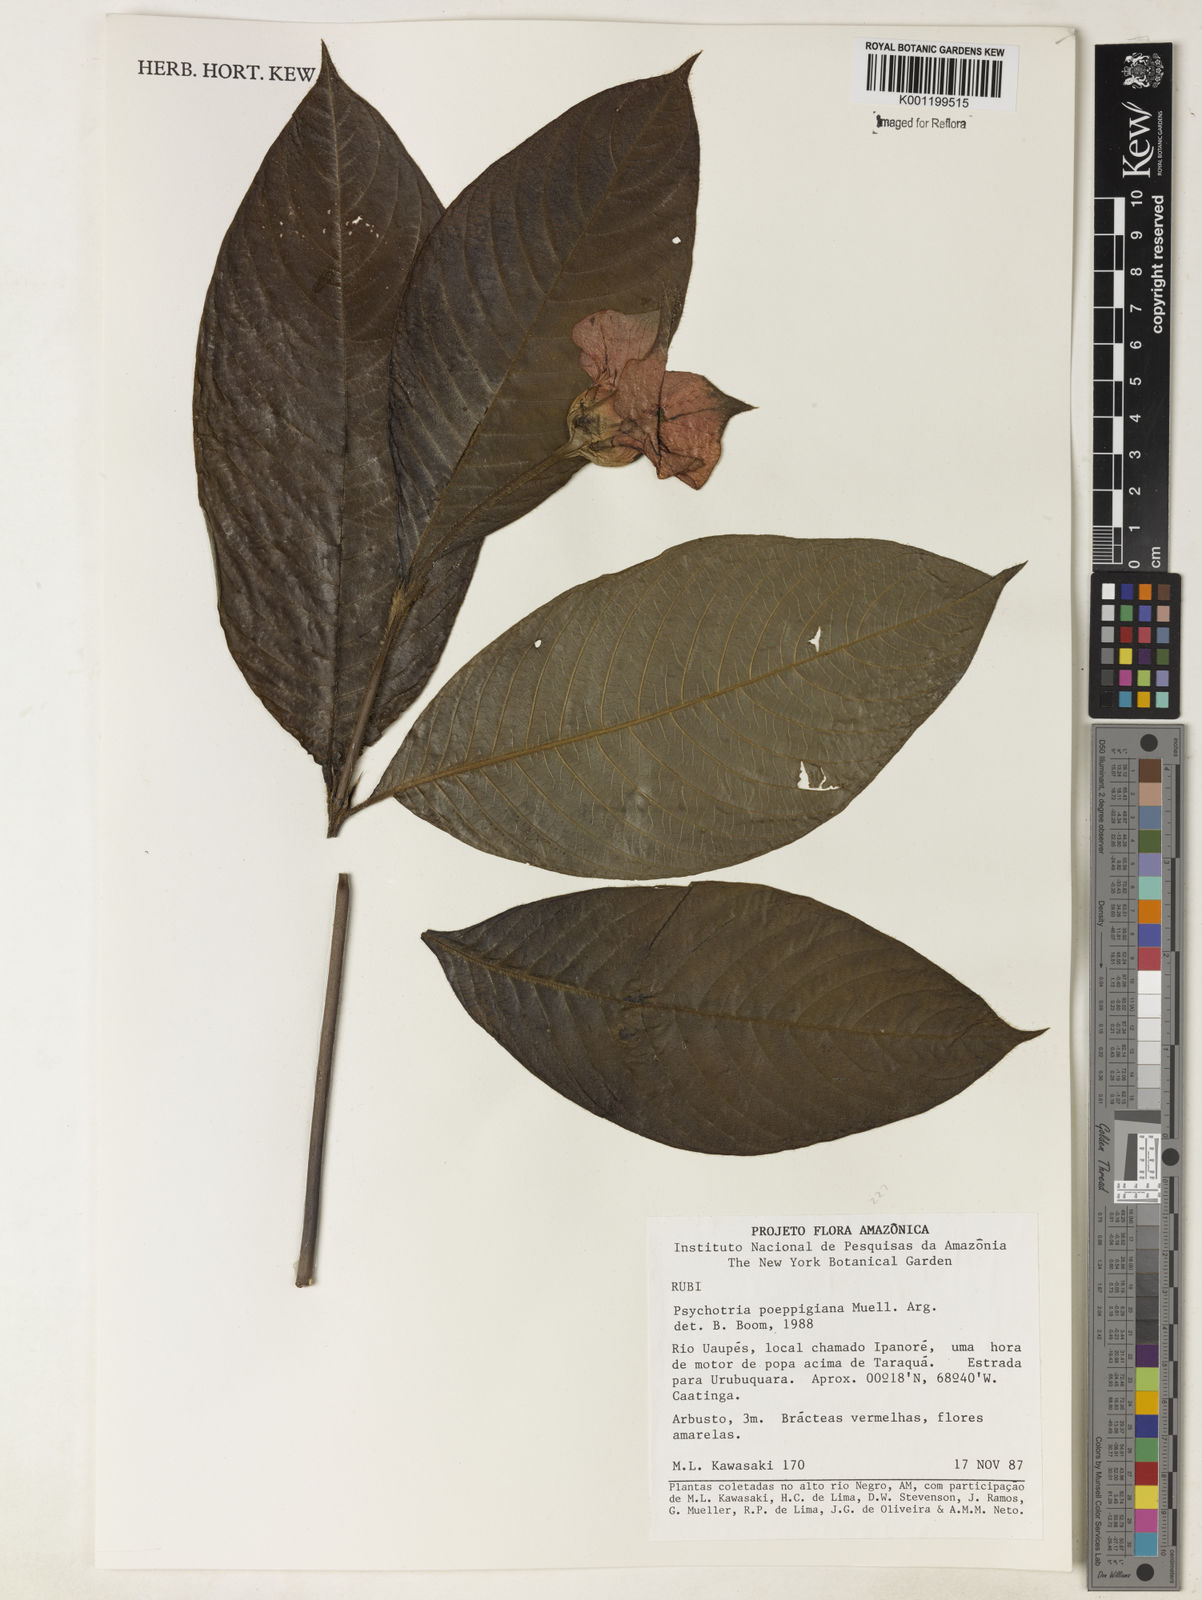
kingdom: Plantae
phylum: Tracheophyta
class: Magnoliopsida
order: Gentianales
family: Rubiaceae
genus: Psychotria
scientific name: Psychotria
